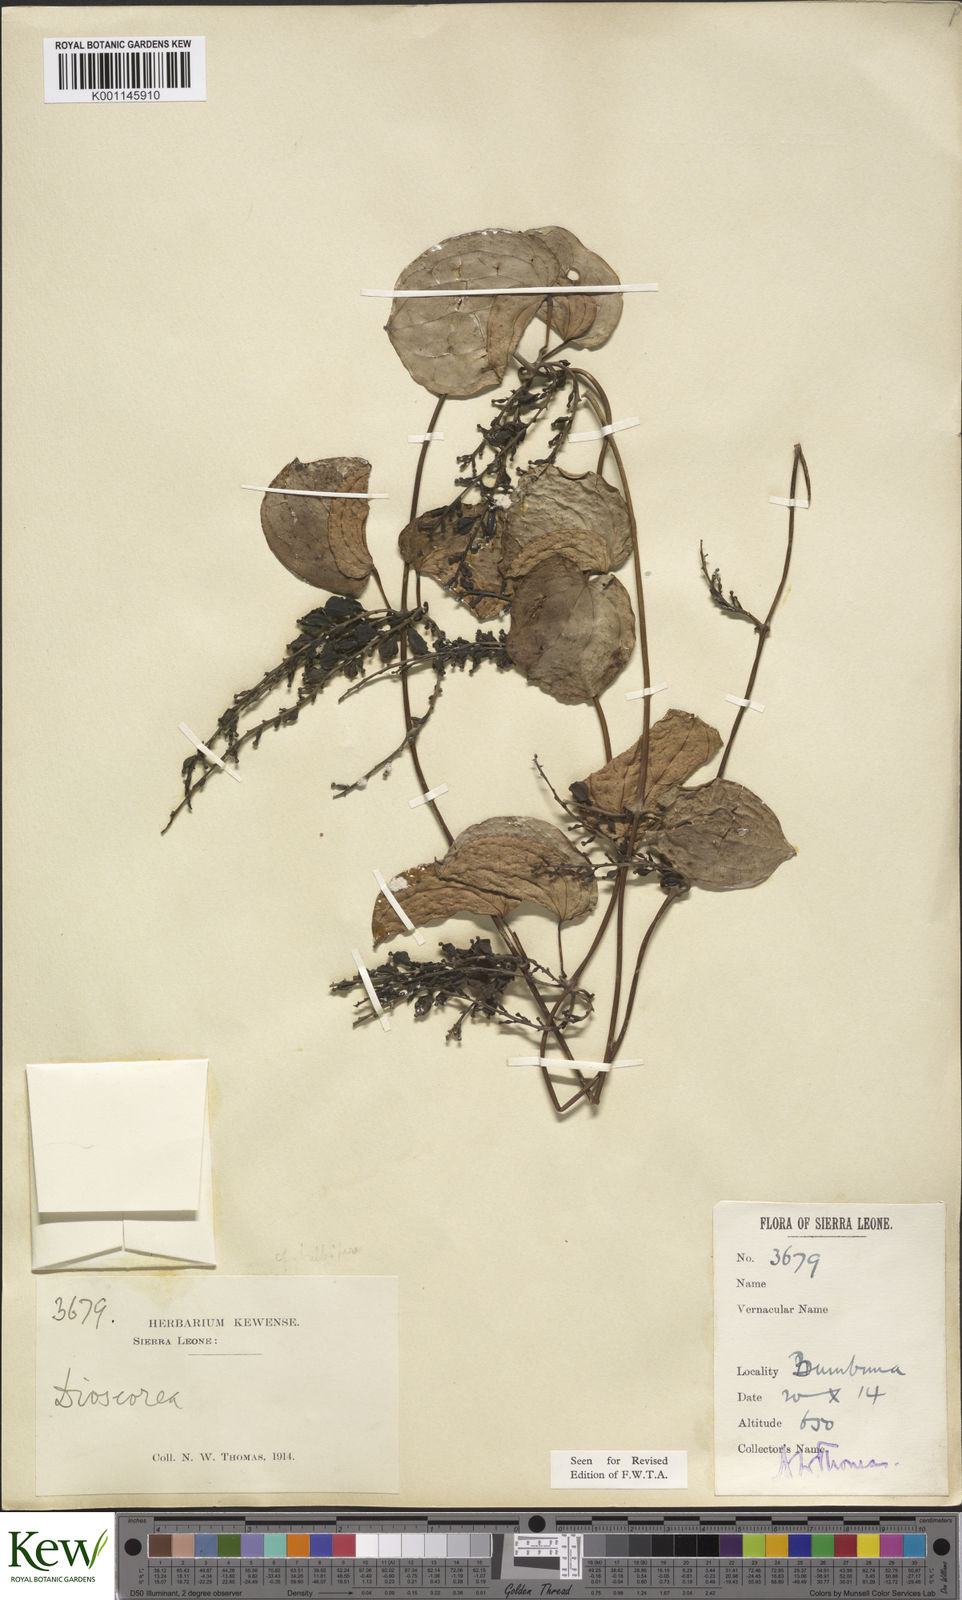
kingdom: Plantae
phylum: Tracheophyta
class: Liliopsida
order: Dioscoreales
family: Dioscoreaceae
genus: Dioscorea
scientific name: Dioscorea togoensis
